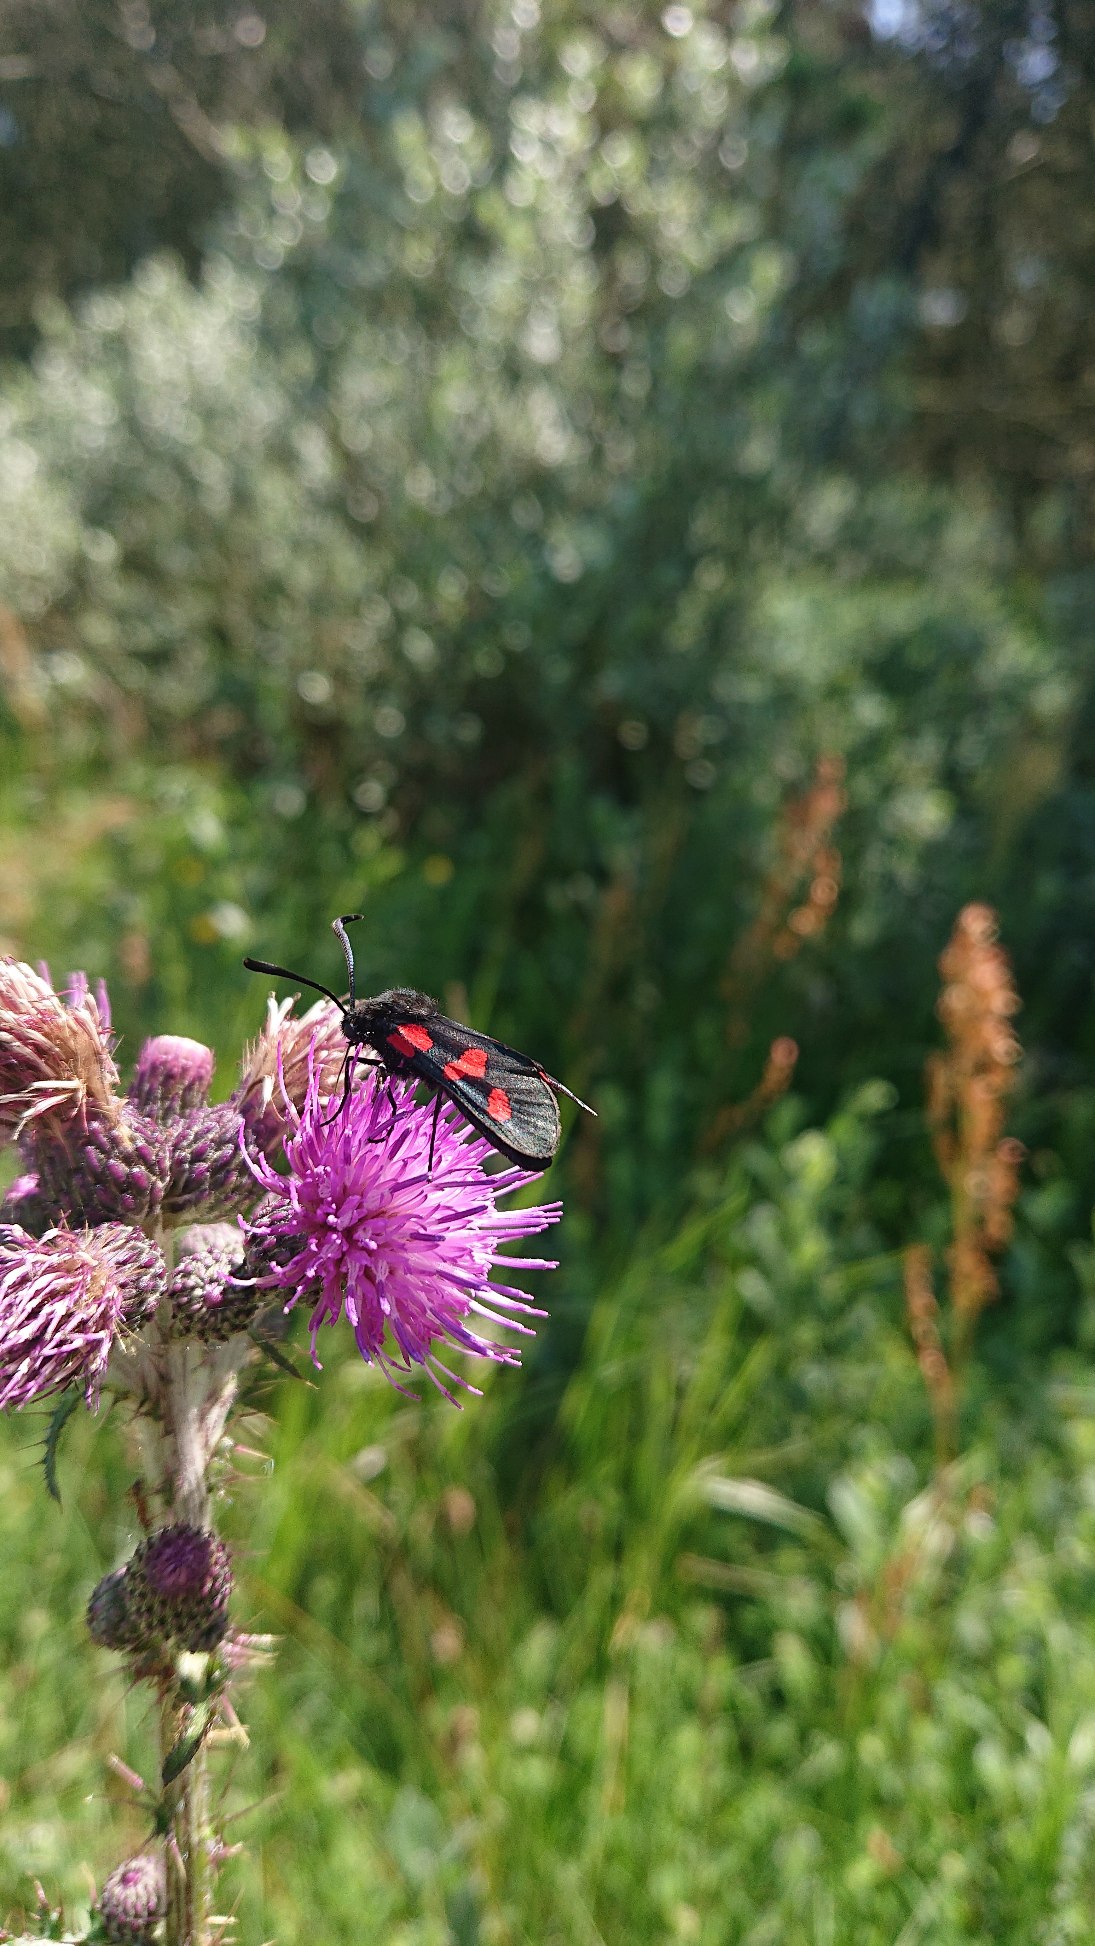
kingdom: Animalia
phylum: Arthropoda
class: Insecta
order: Lepidoptera
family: Zygaenidae
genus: Zygaena
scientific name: Zygaena lonicerae
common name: Femplettet køllesværmer
